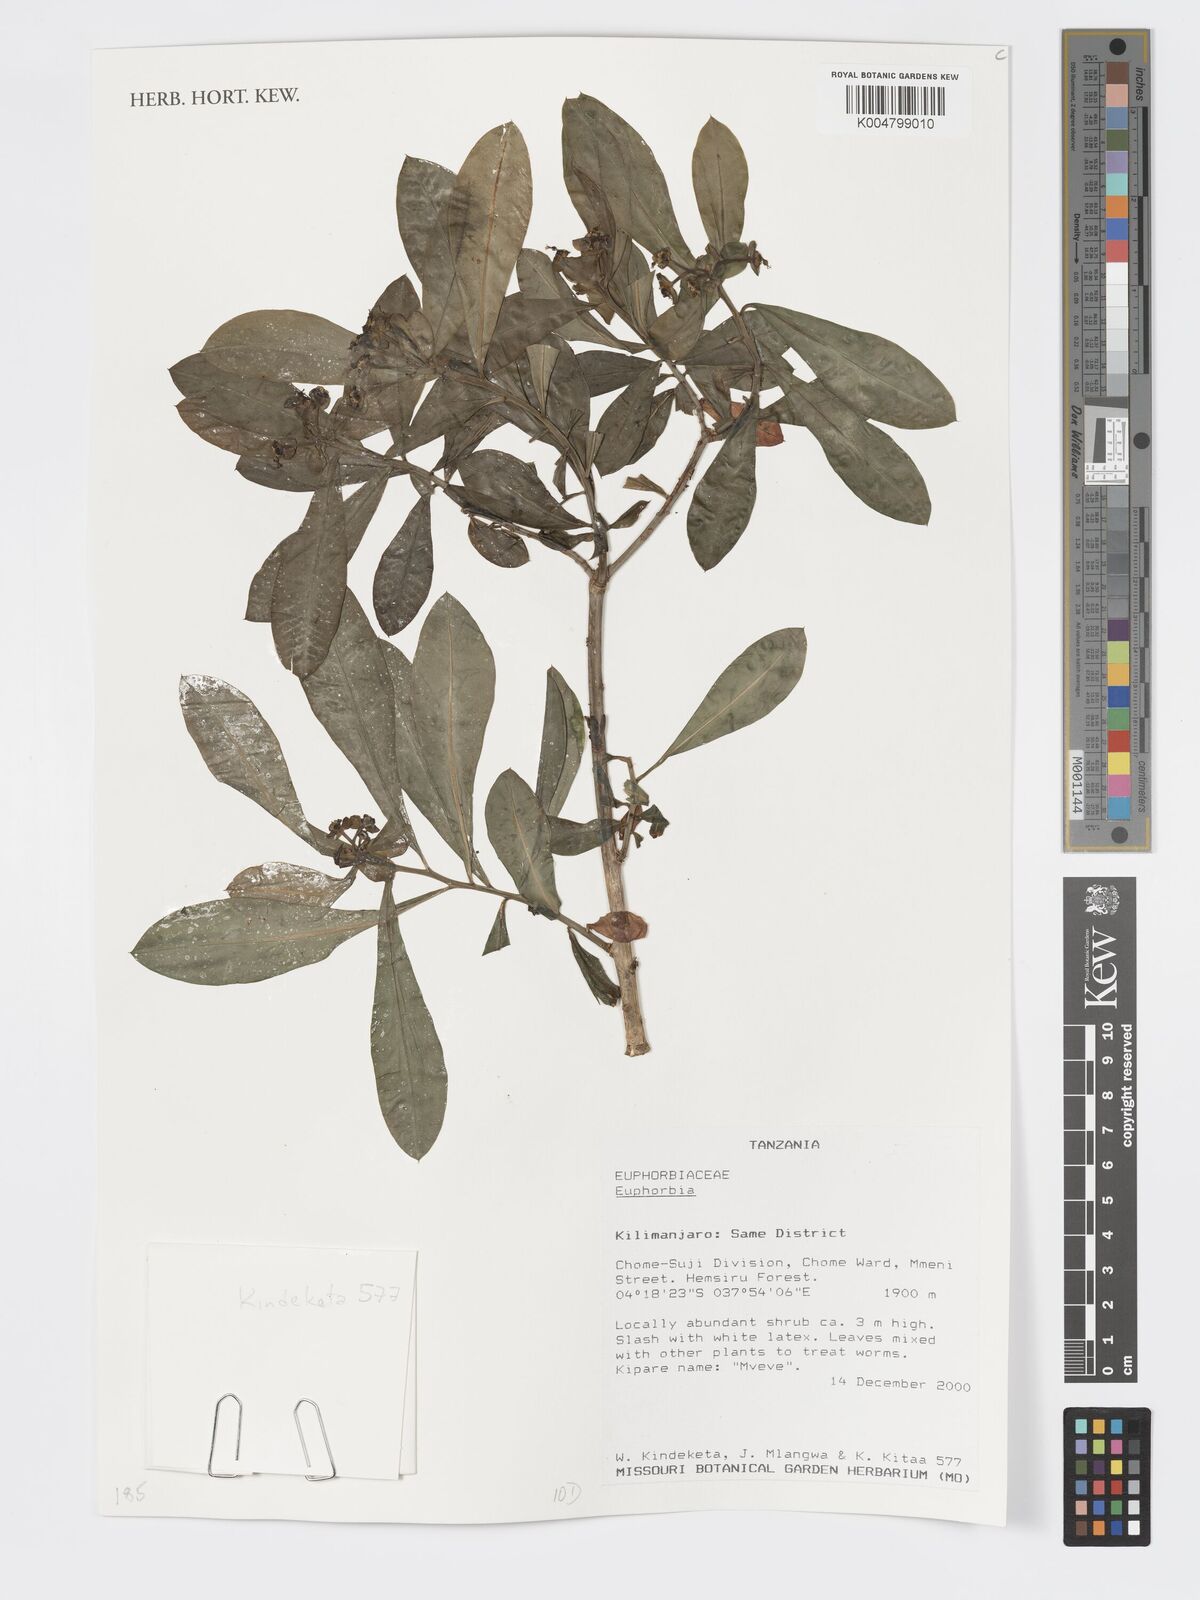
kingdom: Plantae
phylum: Tracheophyta
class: Magnoliopsida
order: Malpighiales
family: Euphorbiaceae
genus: Euphorbia
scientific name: Euphorbia
